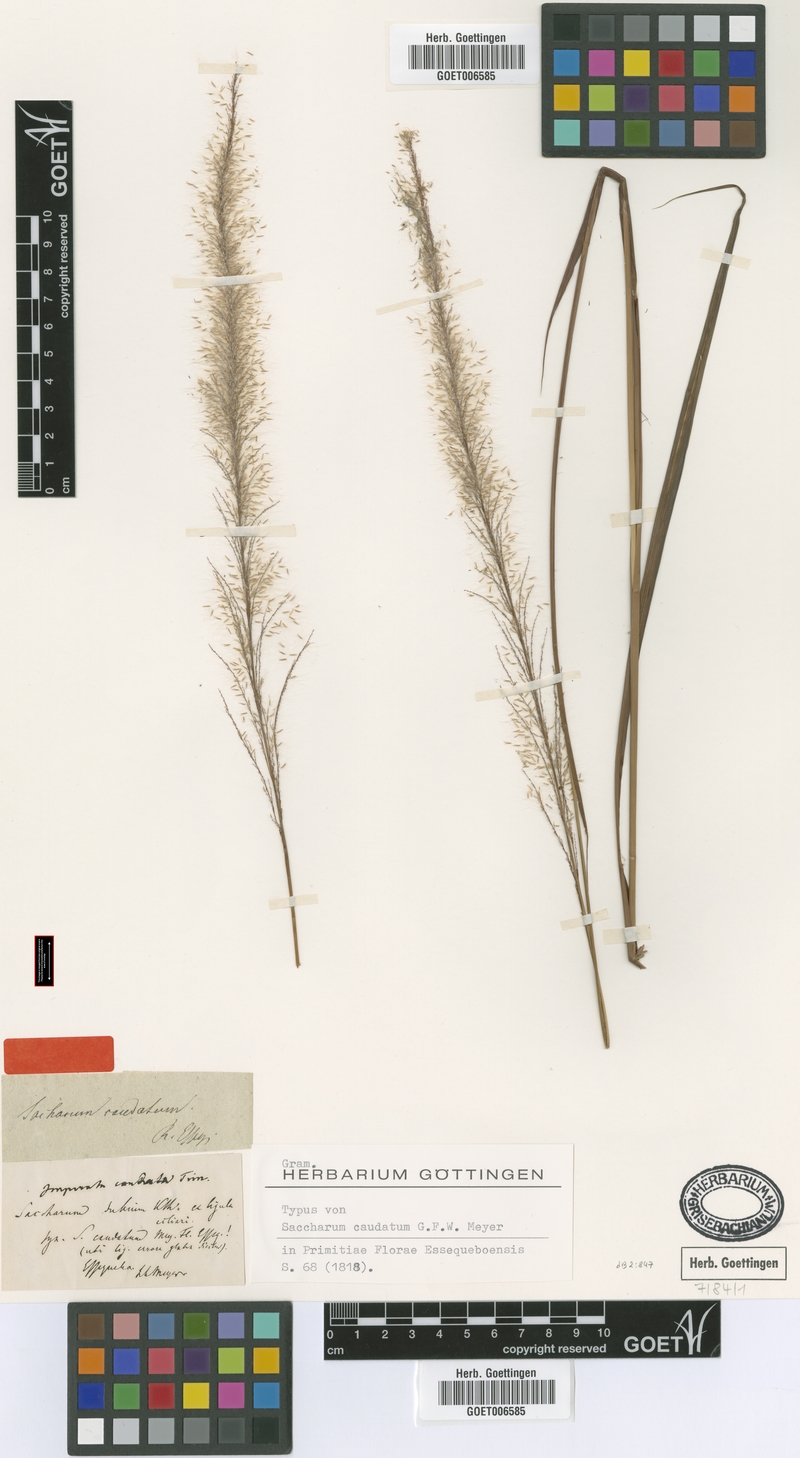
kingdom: Plantae
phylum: Tracheophyta
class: Liliopsida
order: Poales
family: Poaceae
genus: Tripidium
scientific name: Tripidium arundinaceum
